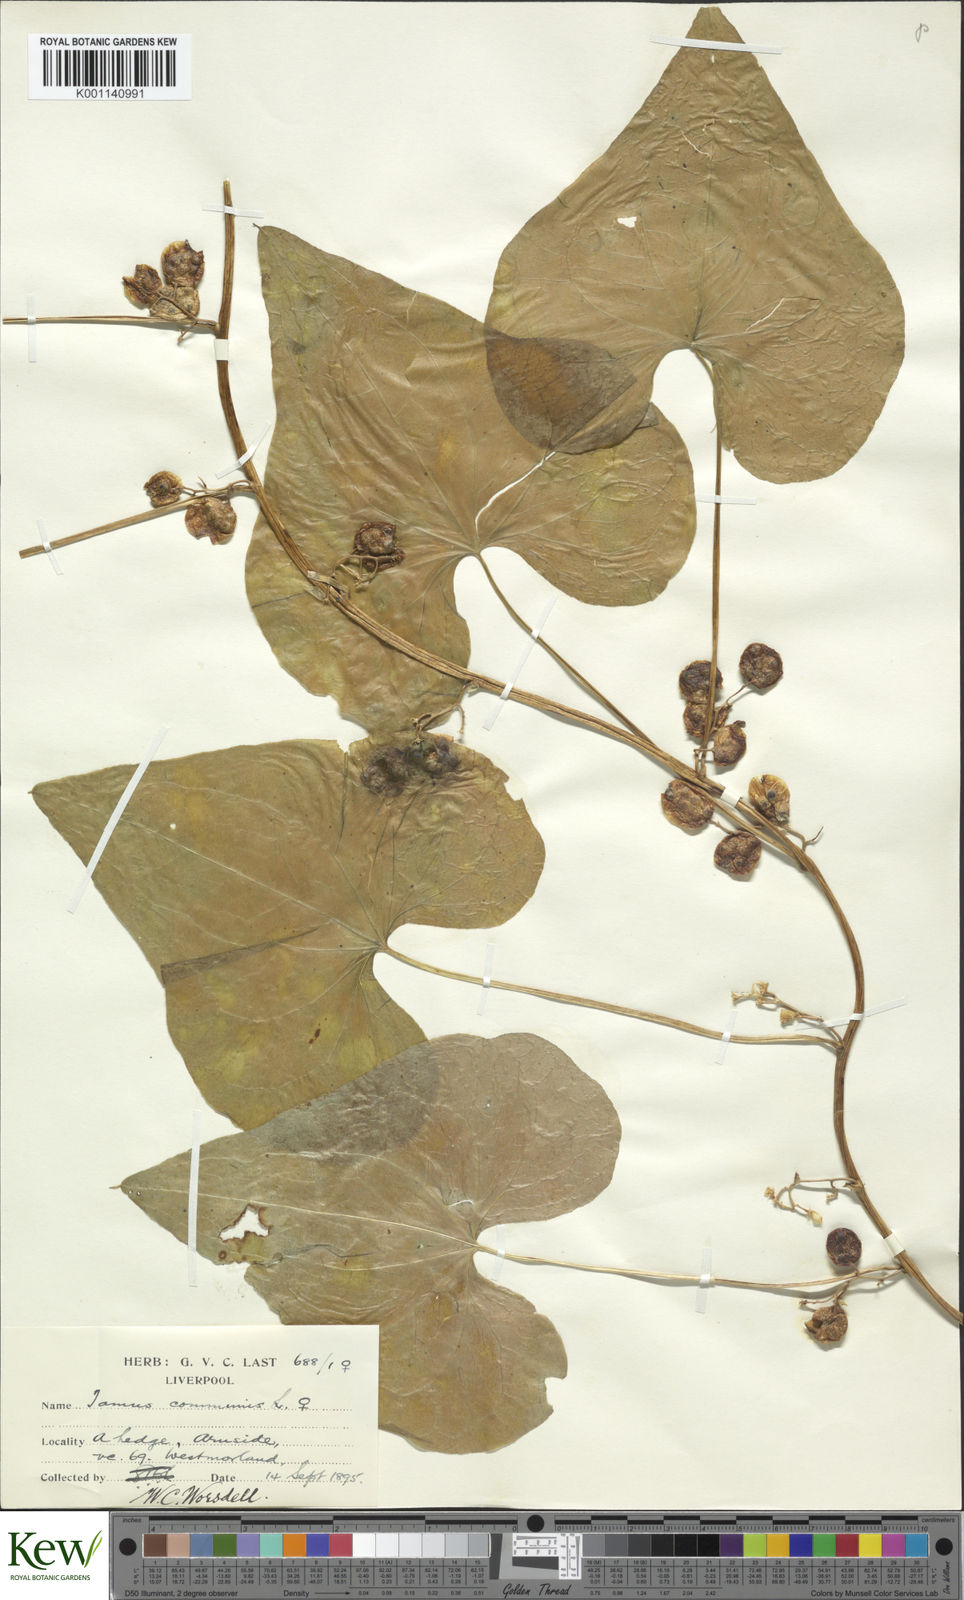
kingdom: Plantae
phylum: Tracheophyta
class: Liliopsida
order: Dioscoreales
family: Dioscoreaceae
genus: Dioscorea
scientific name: Dioscorea communis
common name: Black-bindweed
